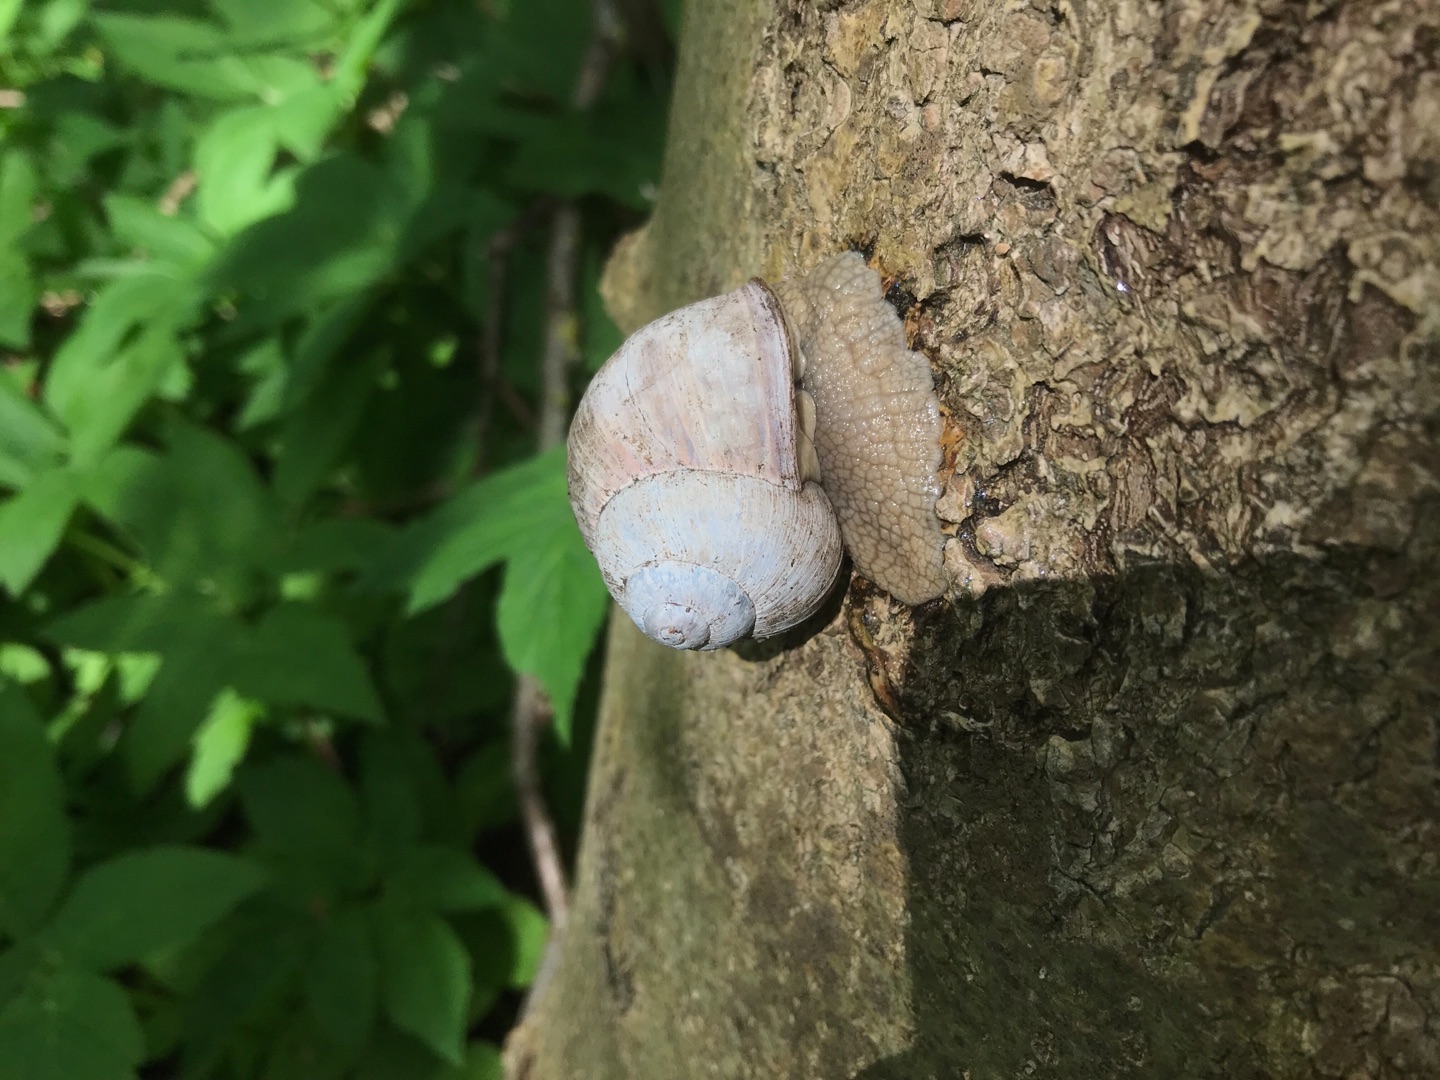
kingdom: Animalia
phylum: Mollusca
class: Gastropoda
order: Stylommatophora
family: Helicidae
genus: Helix
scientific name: Helix pomatia
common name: Vinbjergsnegl
